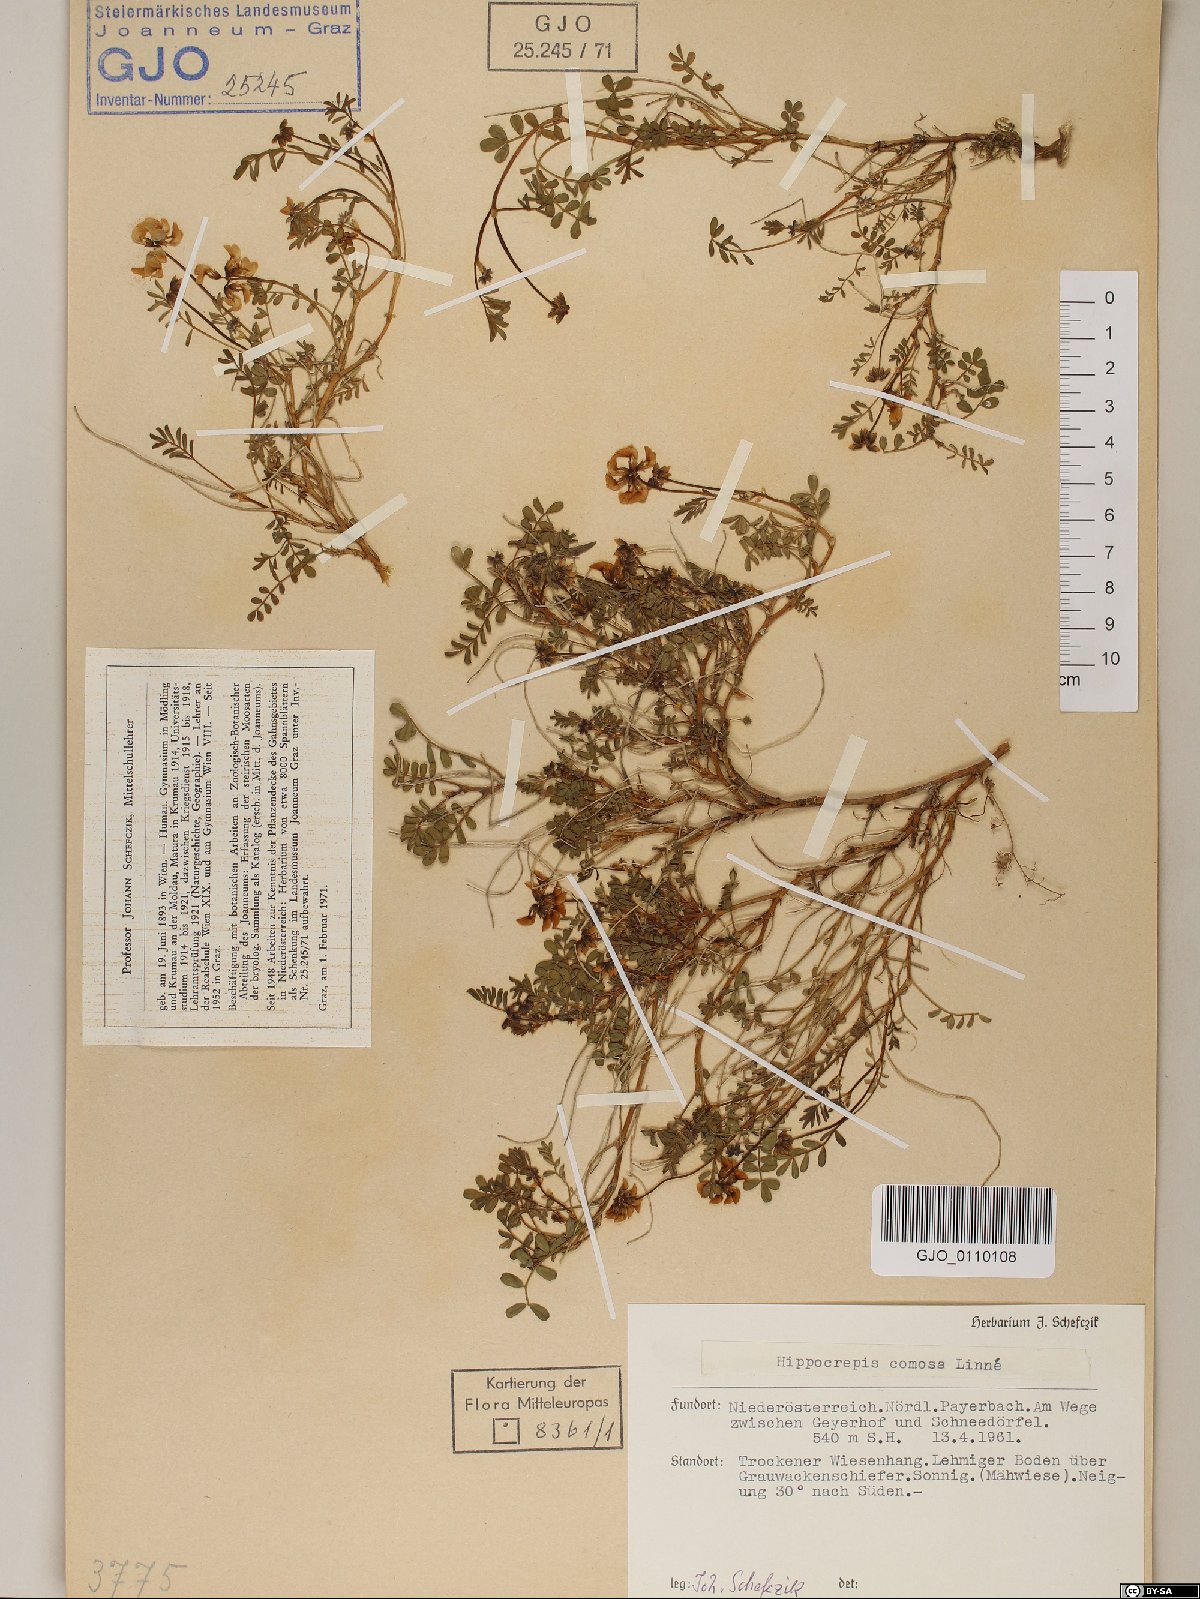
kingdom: Plantae
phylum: Tracheophyta
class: Magnoliopsida
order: Fabales
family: Fabaceae
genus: Hippocrepis
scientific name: Hippocrepis comosa
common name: Horseshoe vetch
